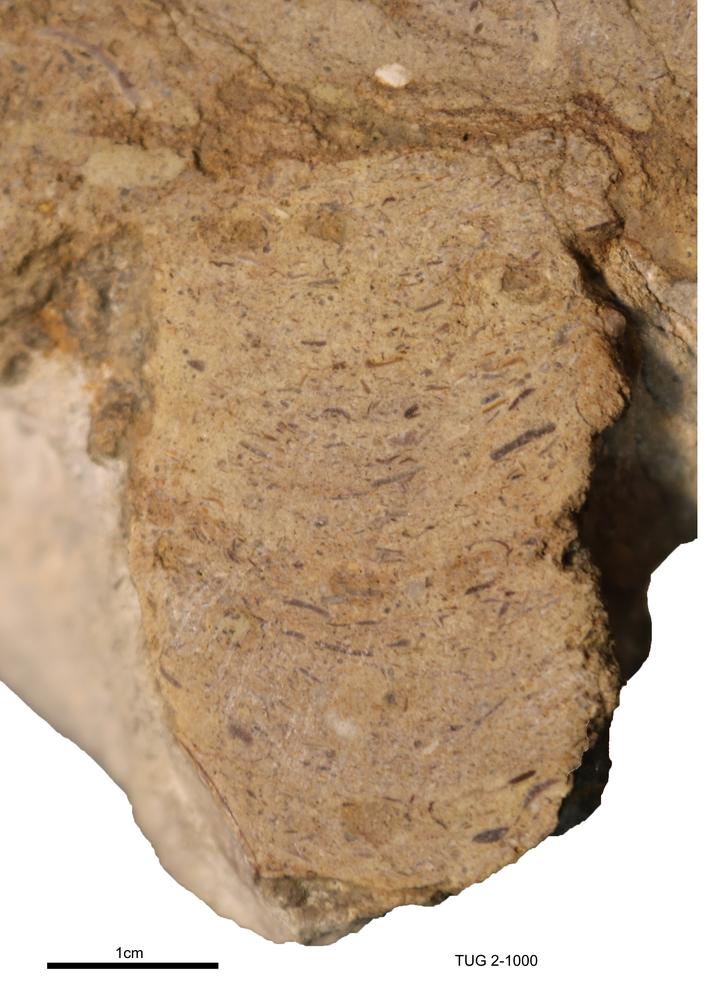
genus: Teichichnus
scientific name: Teichichnus rectus
